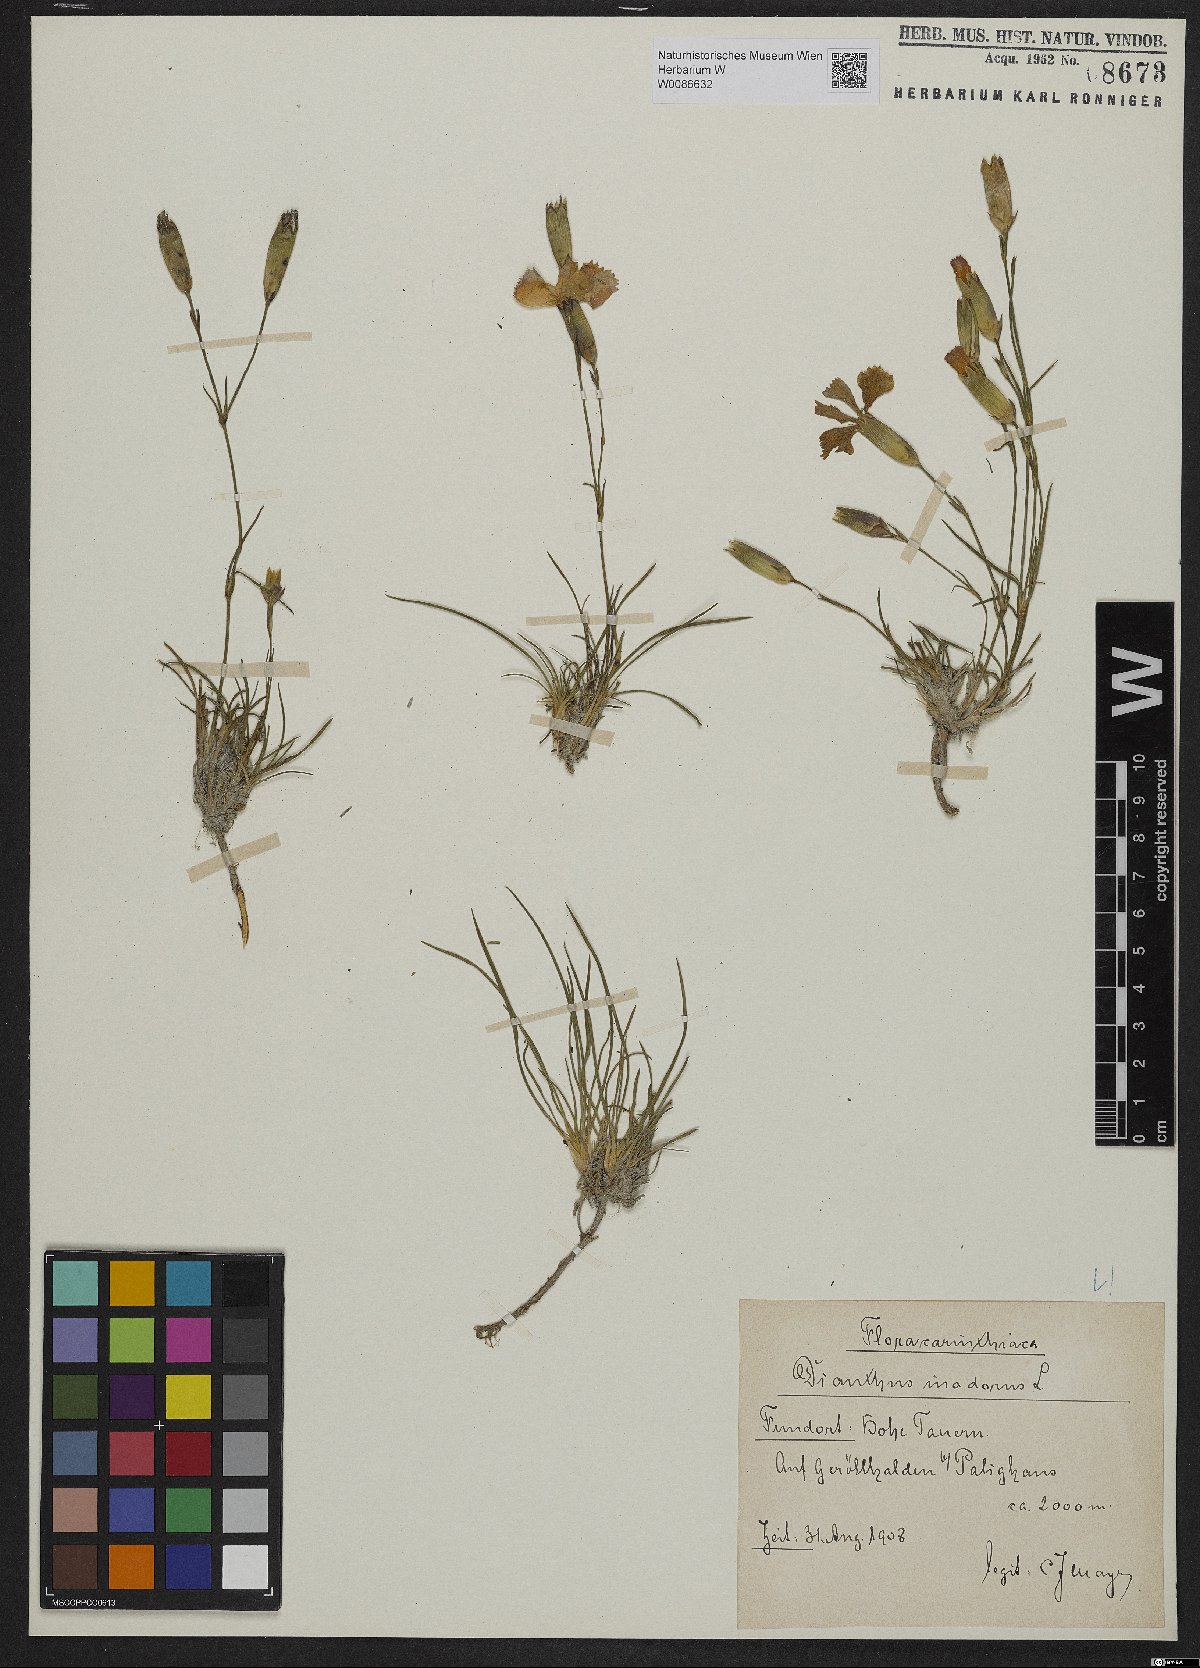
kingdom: Plantae
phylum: Tracheophyta
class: Magnoliopsida
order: Caryophyllales
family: Caryophyllaceae
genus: Dianthus
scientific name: Dianthus sylvestris
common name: Wood pink
